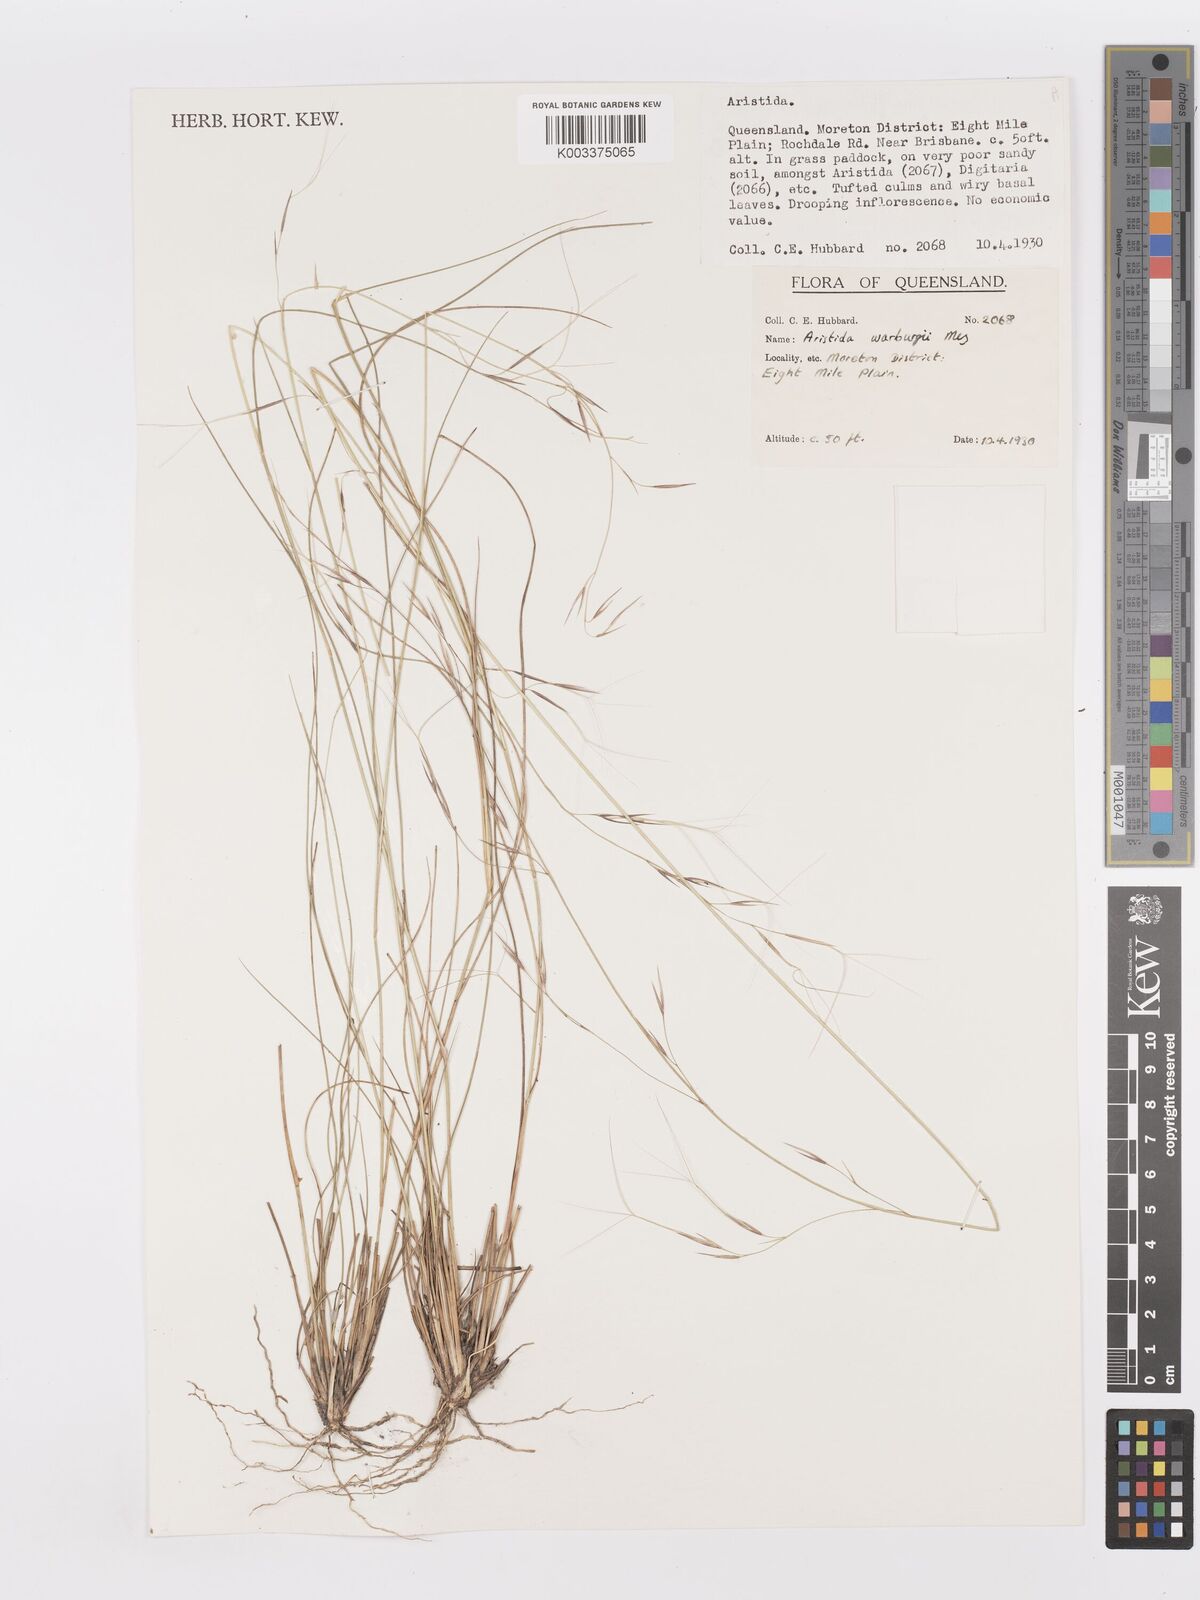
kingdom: Plantae
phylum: Tracheophyta
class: Liliopsida
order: Poales
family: Poaceae
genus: Aristida
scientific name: Aristida warburgii
